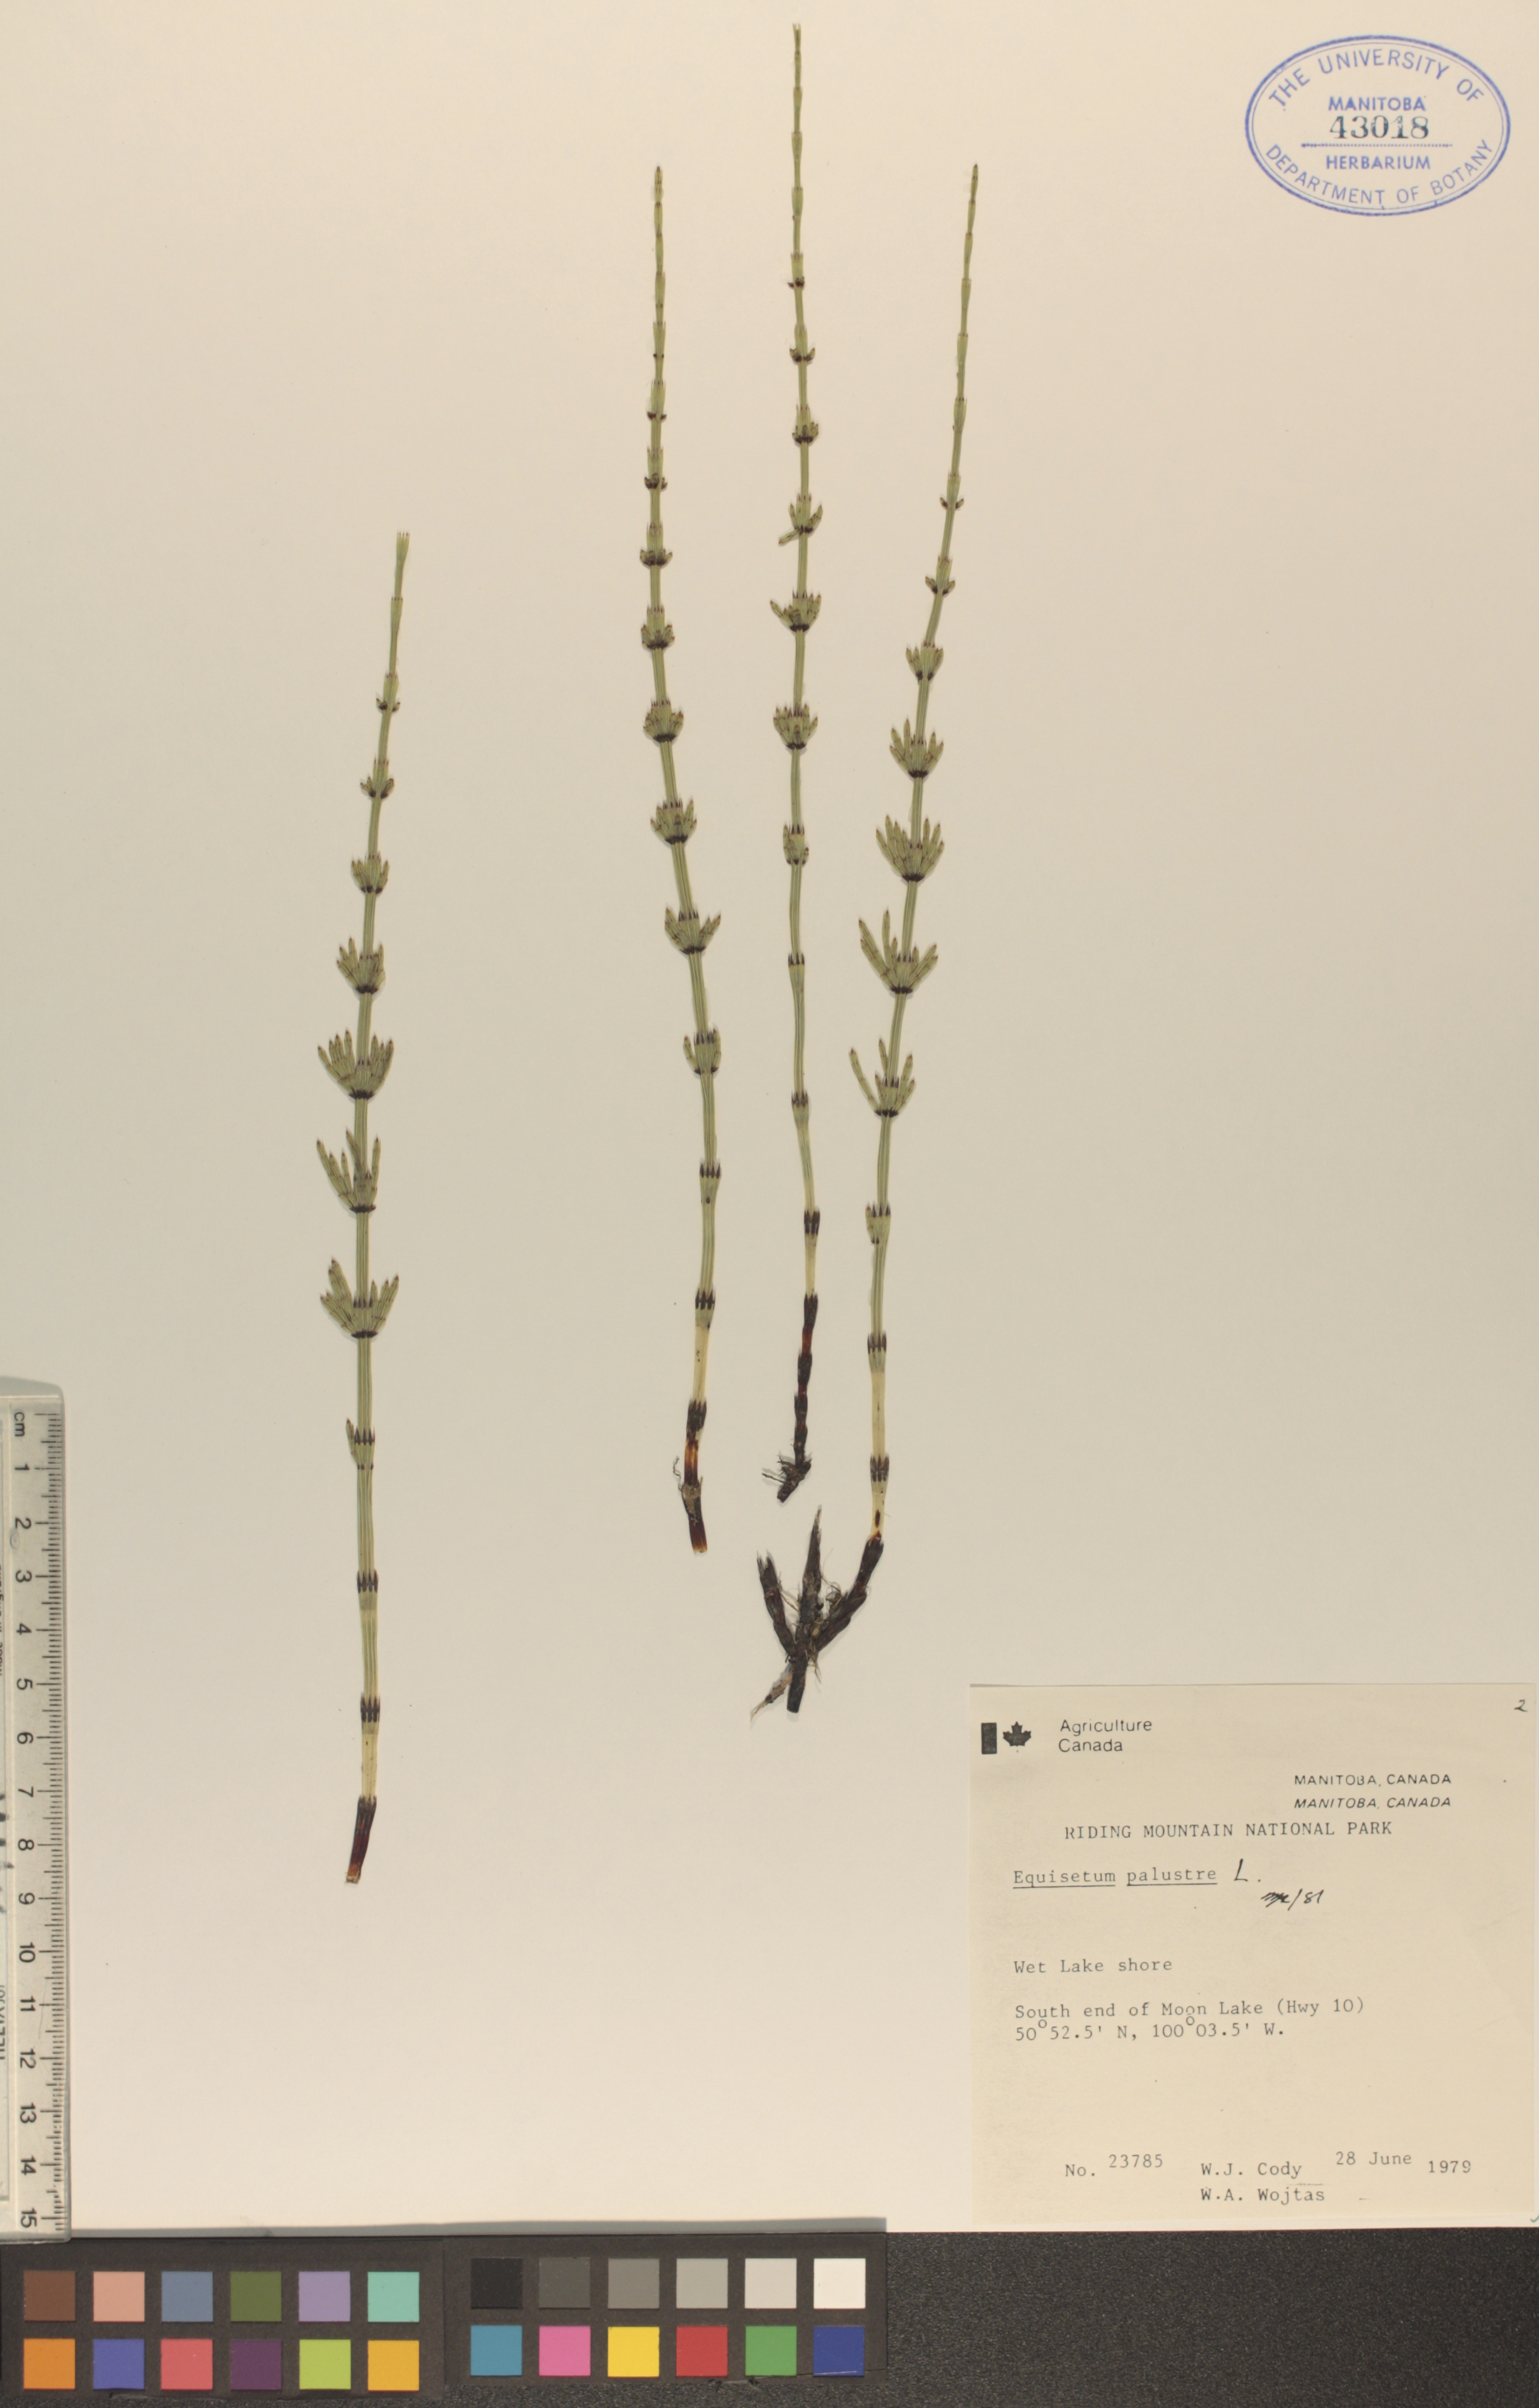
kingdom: Plantae
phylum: Tracheophyta
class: Polypodiopsida
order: Equisetales
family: Equisetaceae
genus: Equisetum
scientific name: Equisetum palustre
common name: Marsh horsetail
